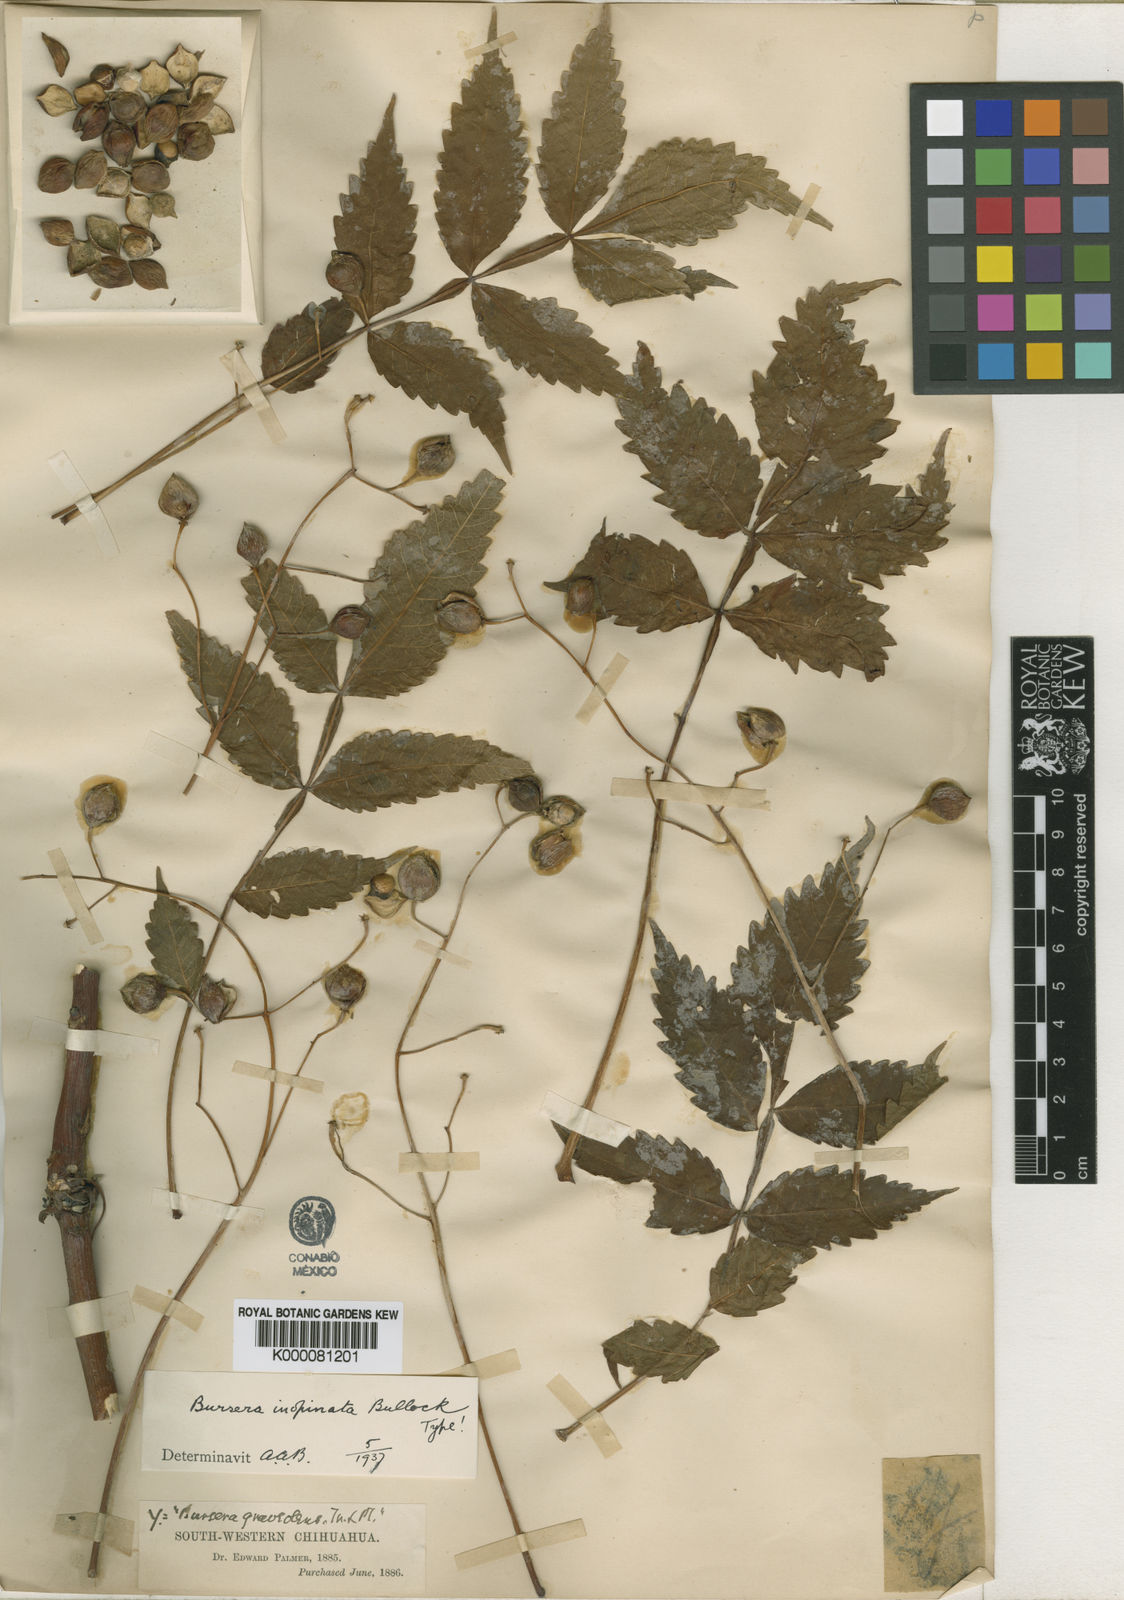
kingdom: Plantae
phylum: Tracheophyta
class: Magnoliopsida
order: Sapindales
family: Burseraceae
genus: Bursera
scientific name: Bursera penicillata
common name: Indian-lavender
